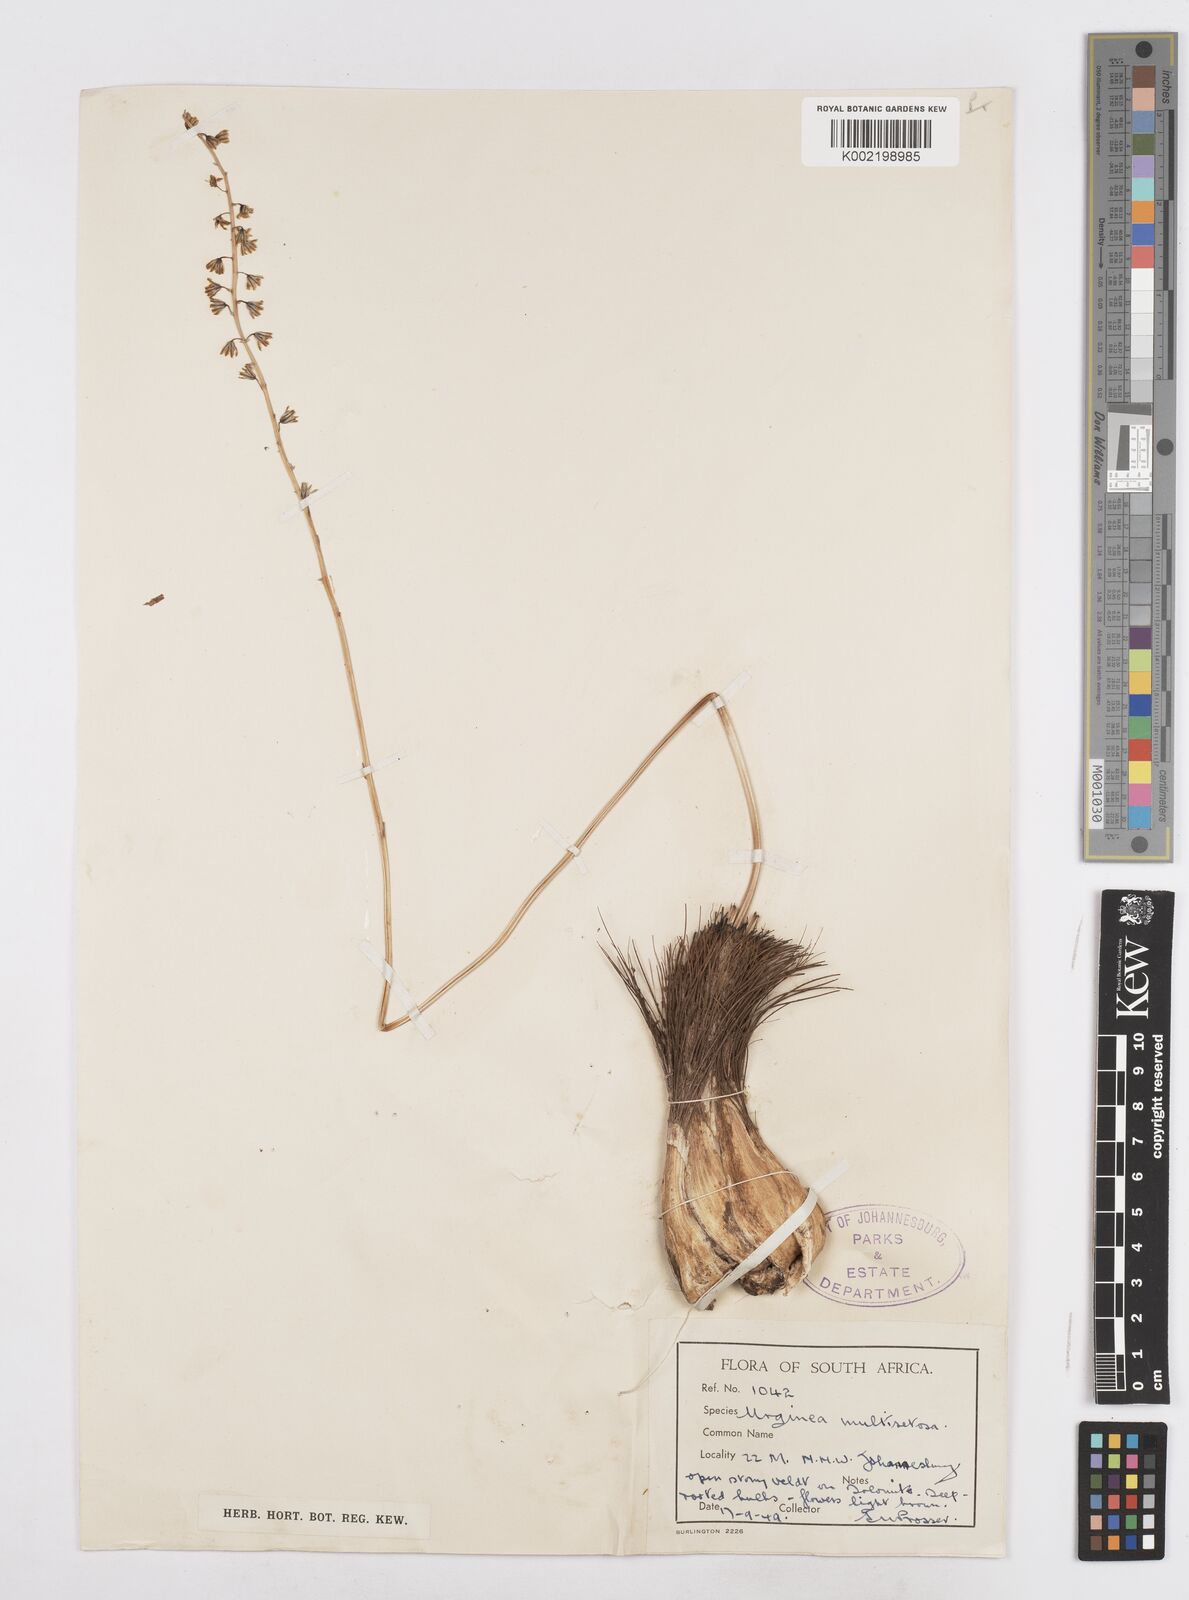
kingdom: Plantae
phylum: Tracheophyta
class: Liliopsida
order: Asparagales
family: Asparagaceae
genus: Drimia
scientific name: Drimia
